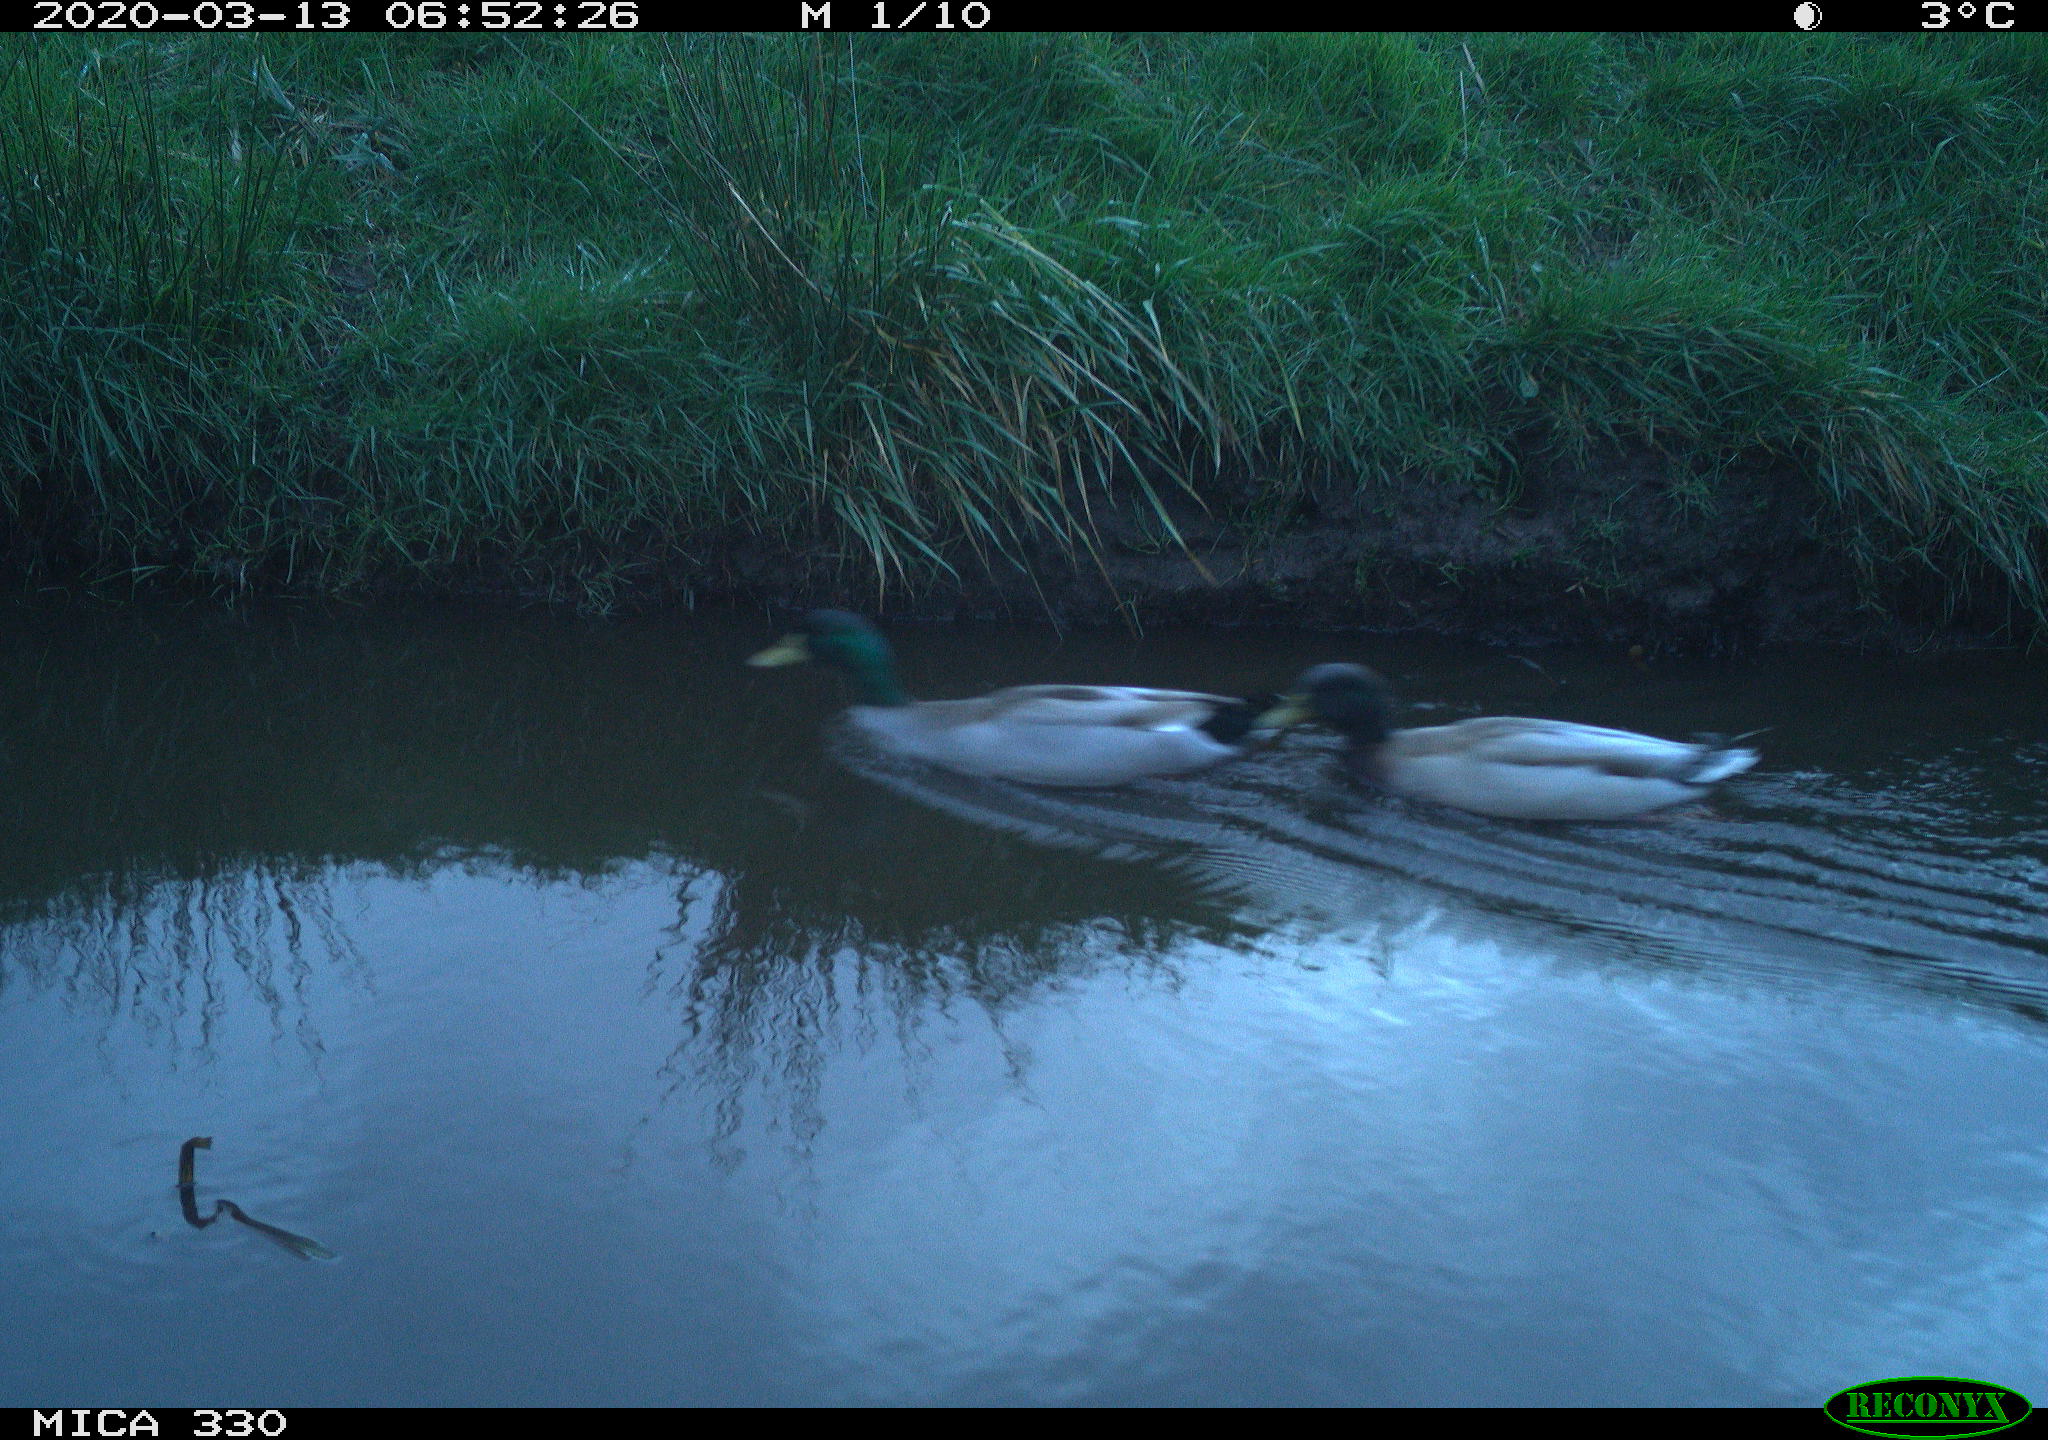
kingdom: Animalia
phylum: Chordata
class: Aves
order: Anseriformes
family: Anatidae
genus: Anas
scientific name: Anas platyrhynchos
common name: Mallard
